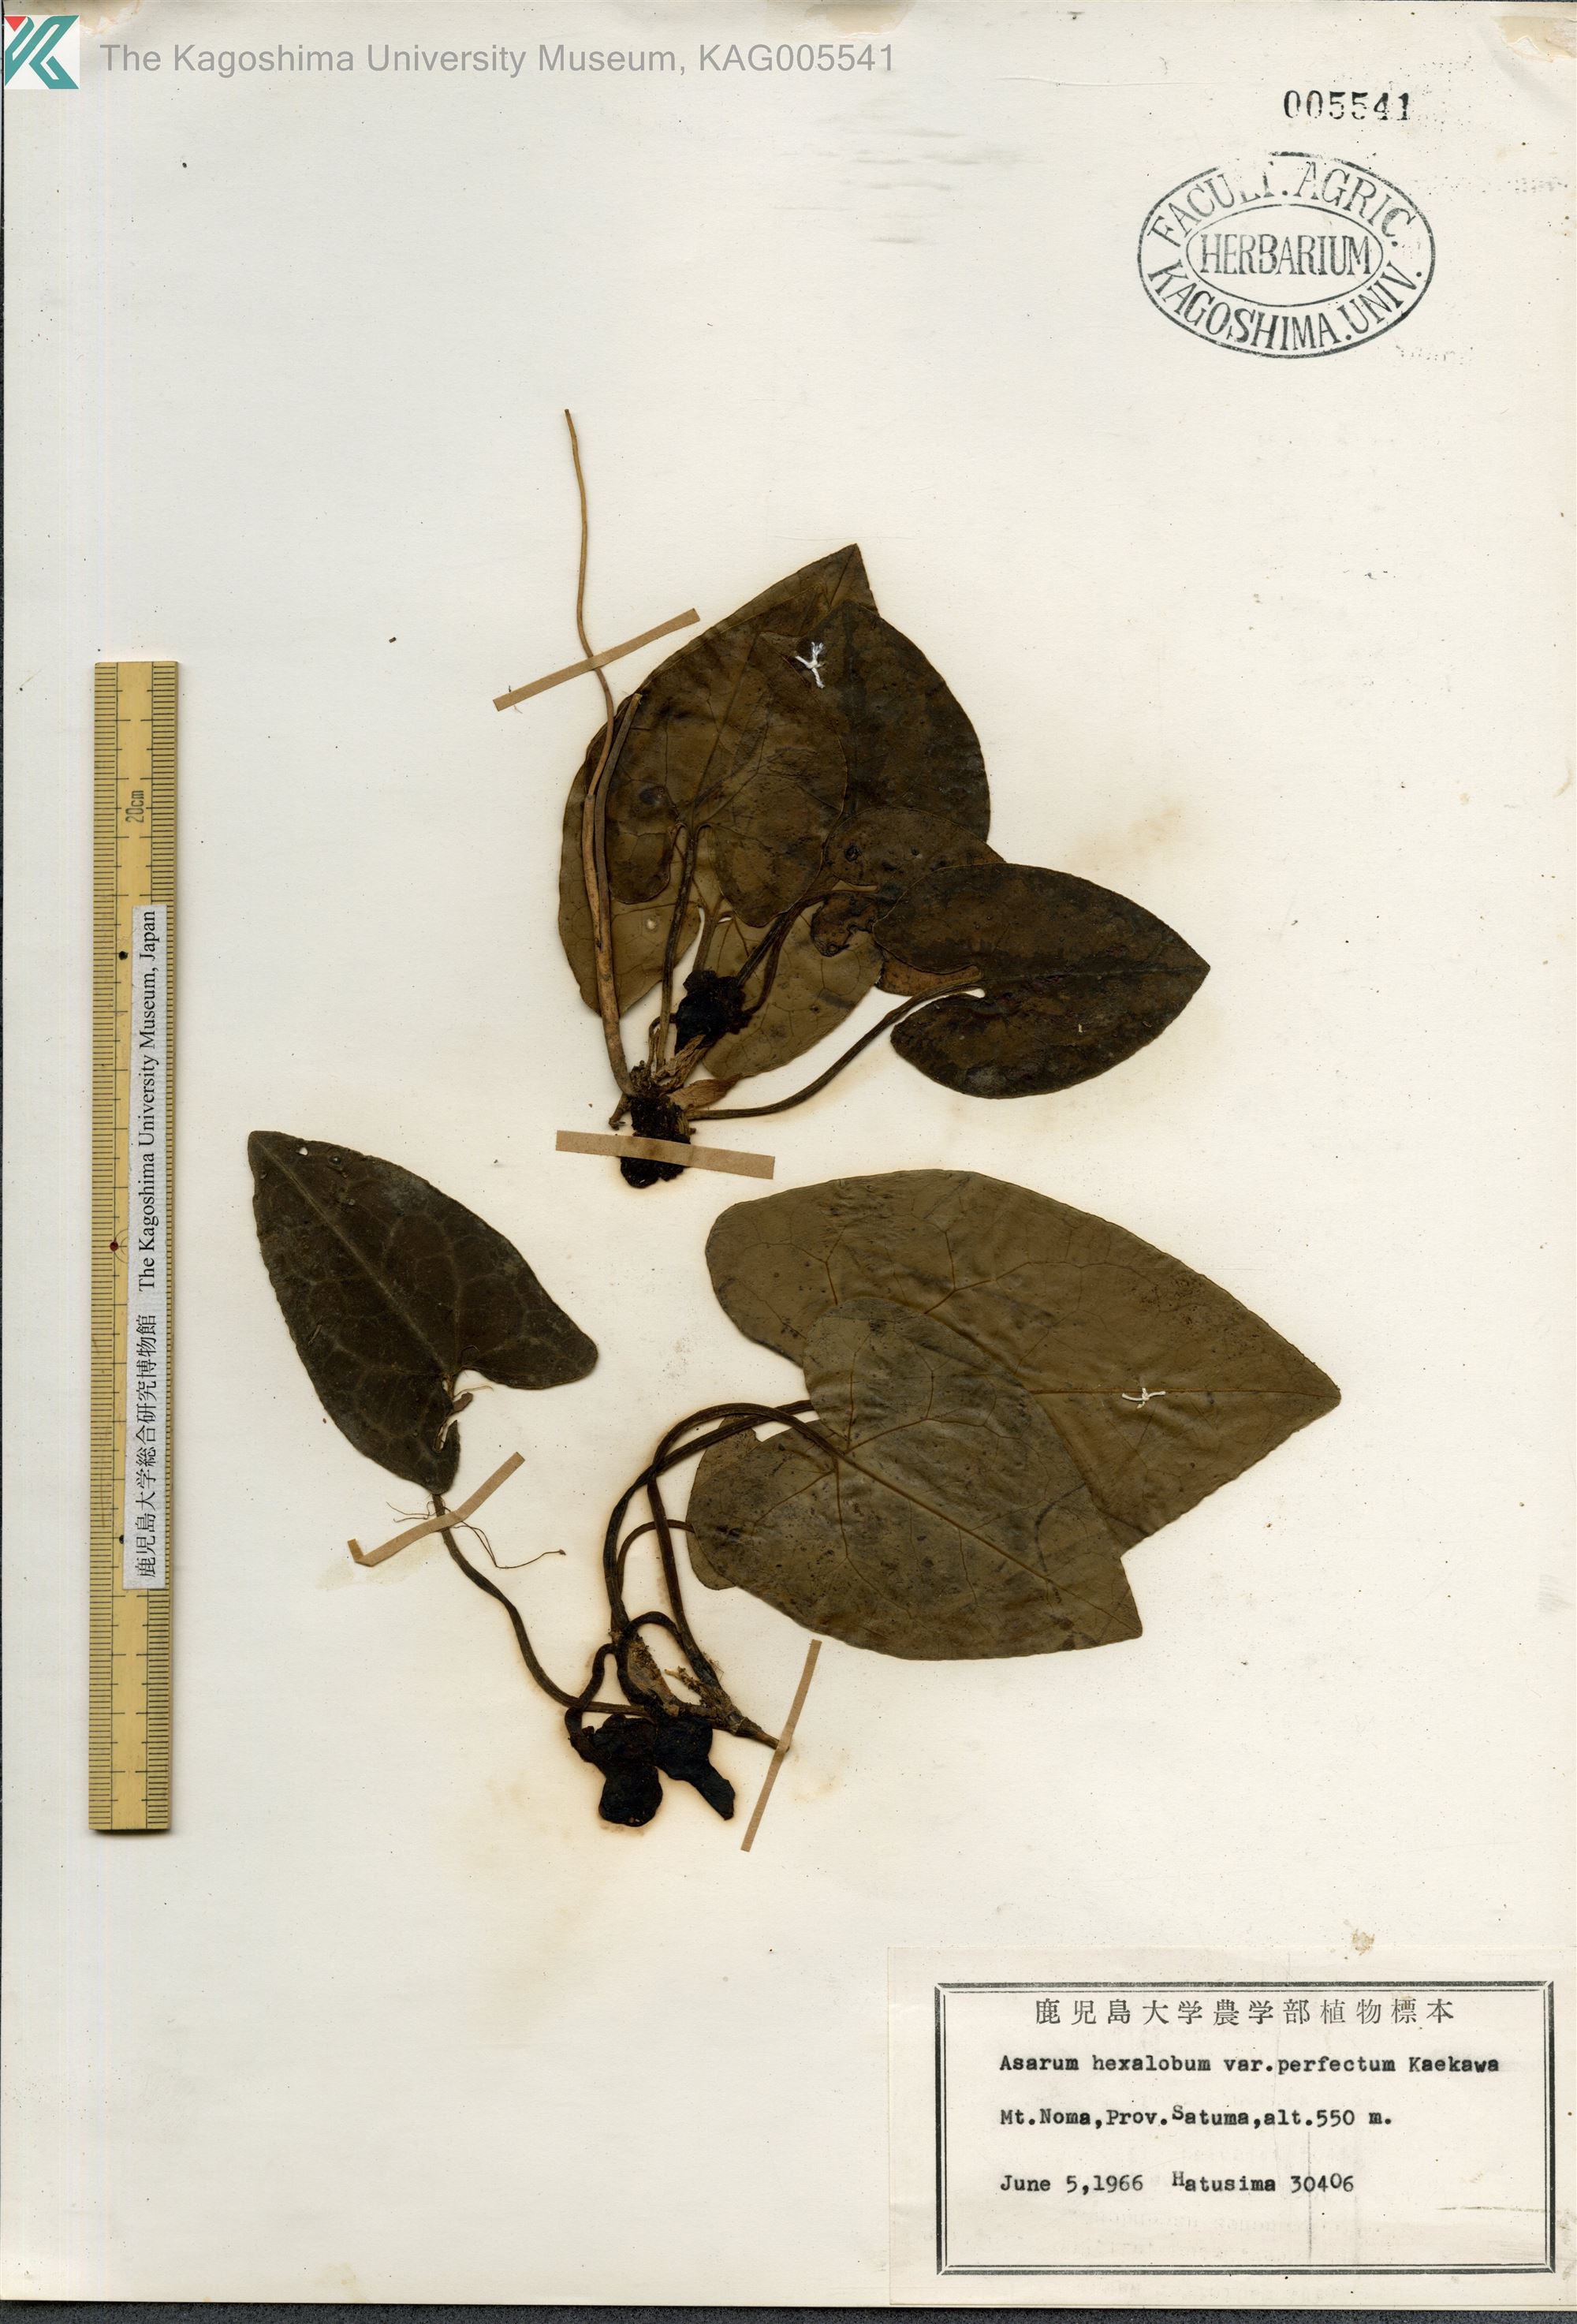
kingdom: Plantae
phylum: Tracheophyta
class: Magnoliopsida
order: Piperales
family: Aristolochiaceae
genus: Asarum
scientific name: Asarum hexalobum
